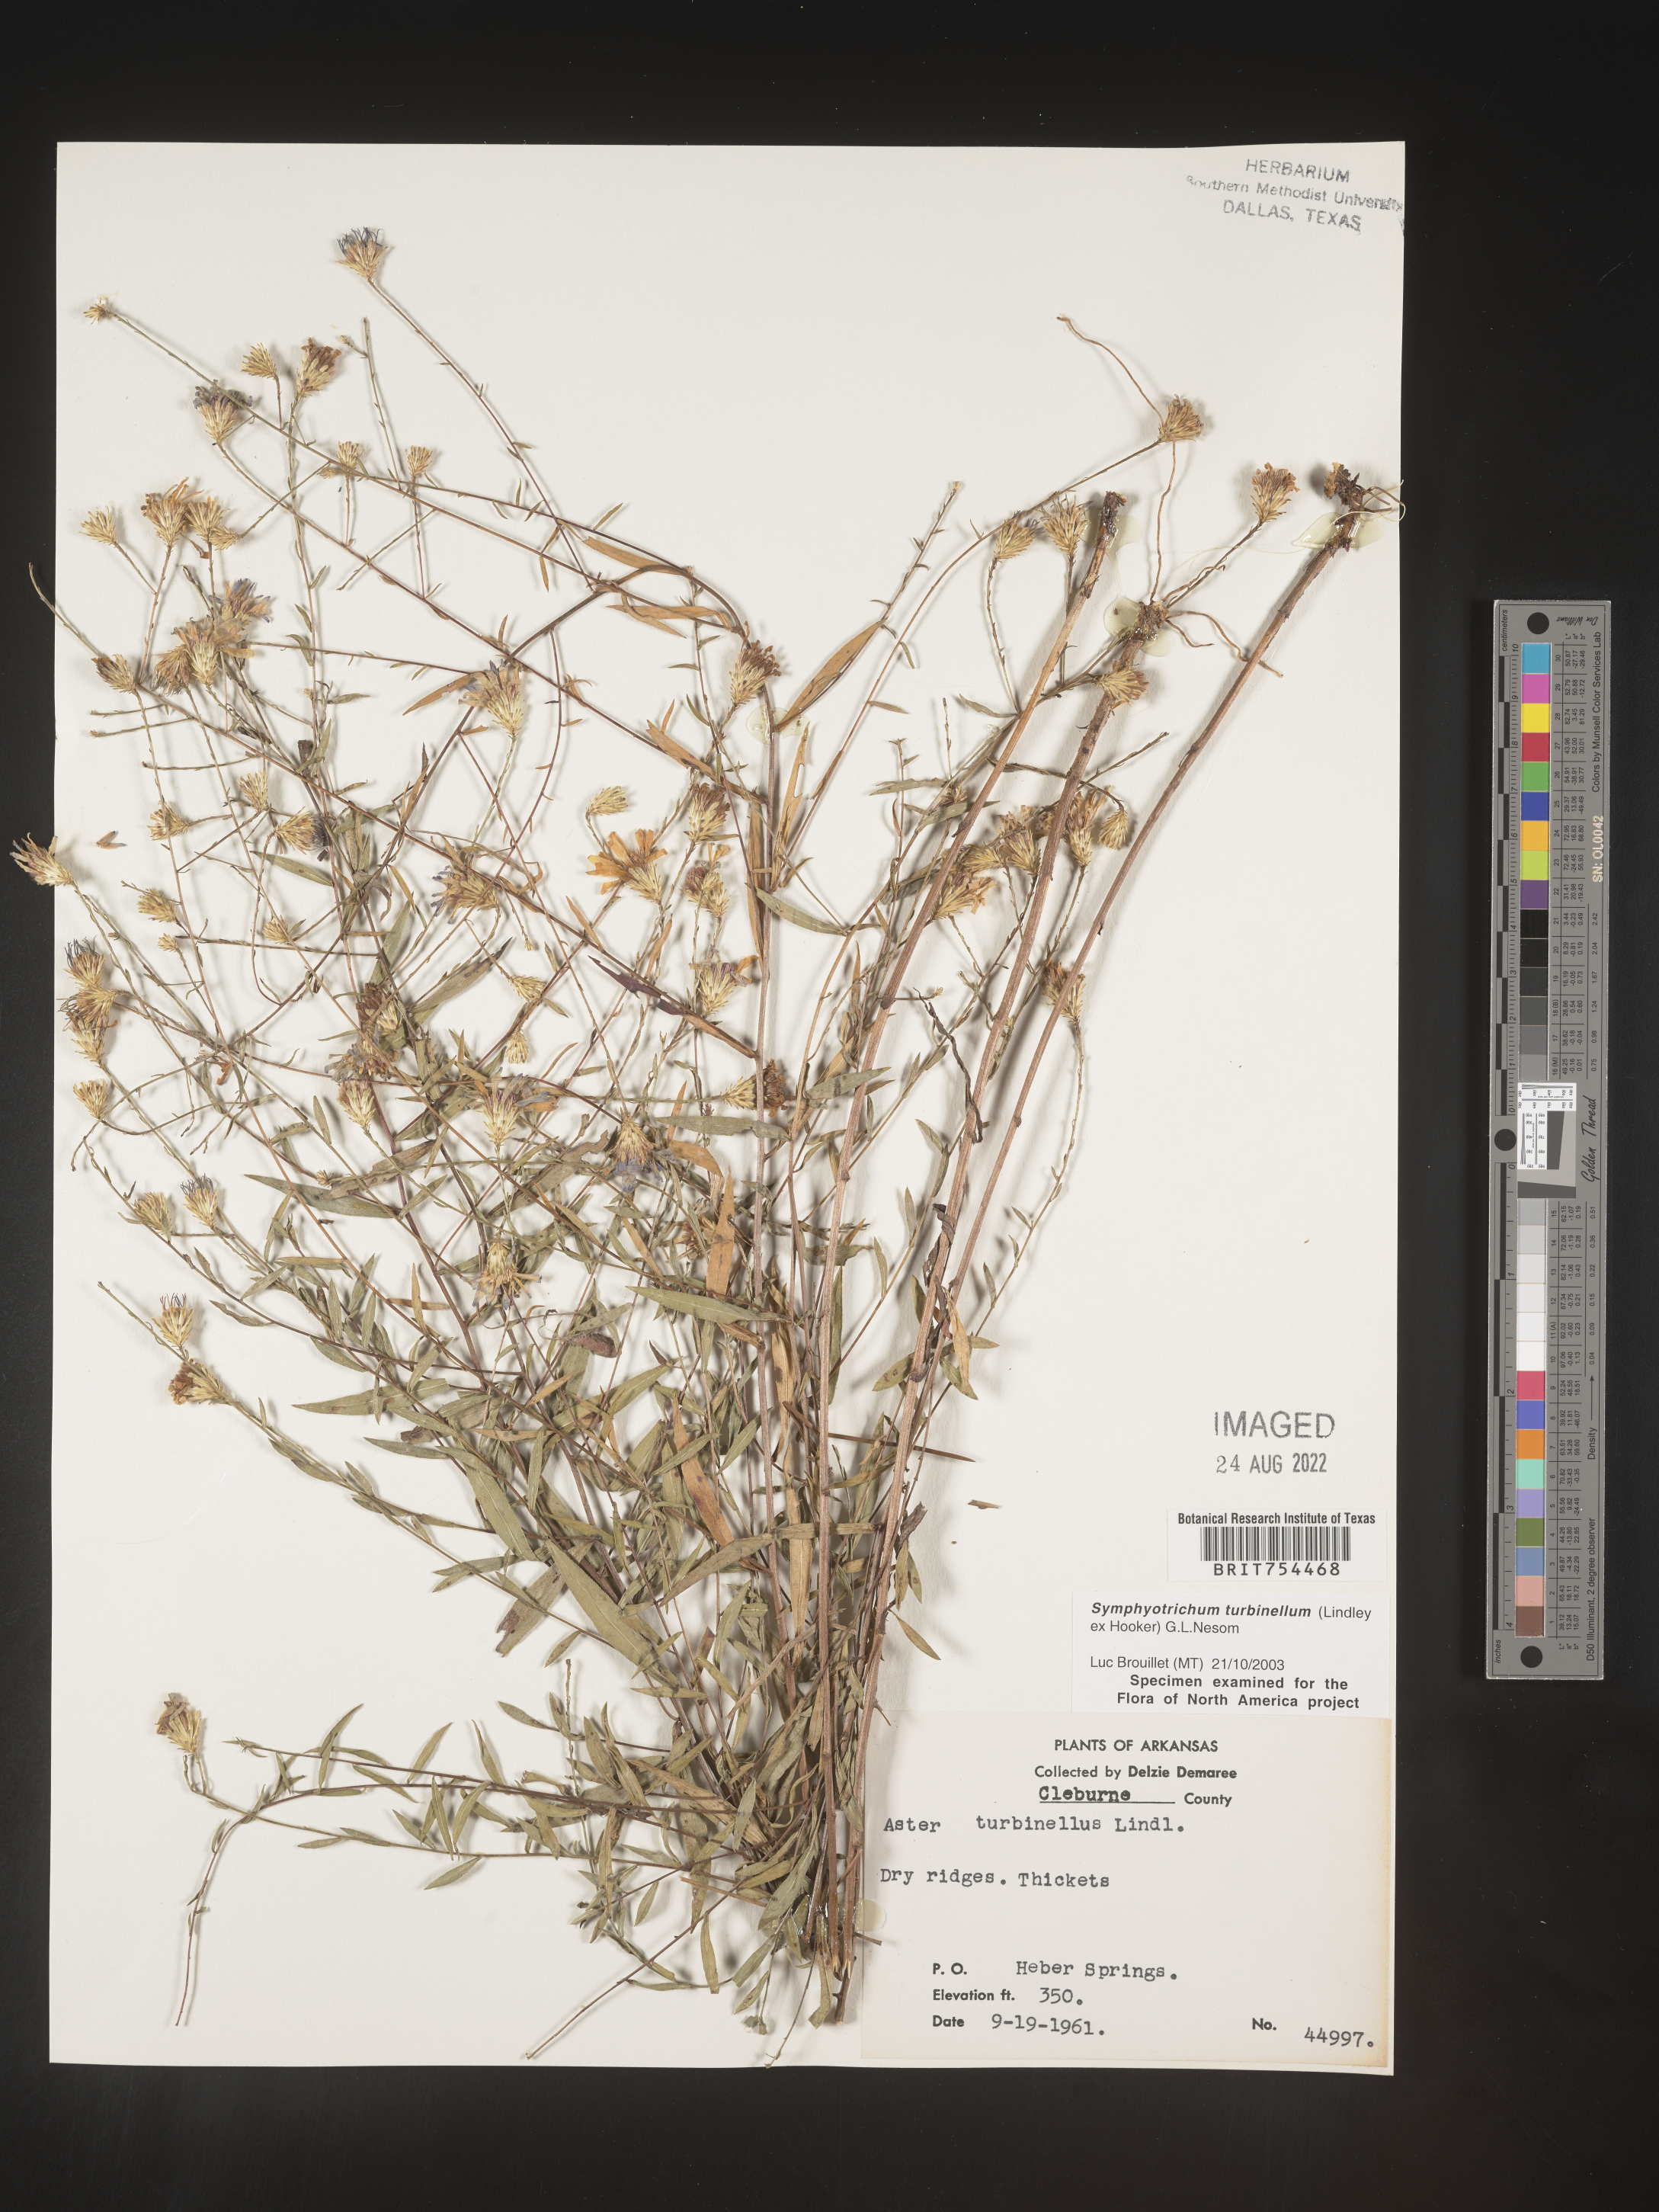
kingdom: Plantae
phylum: Tracheophyta
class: Magnoliopsida
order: Asterales
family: Asteraceae
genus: Symphyotrichum
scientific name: Symphyotrichum turbinellum
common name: Prairie aster
